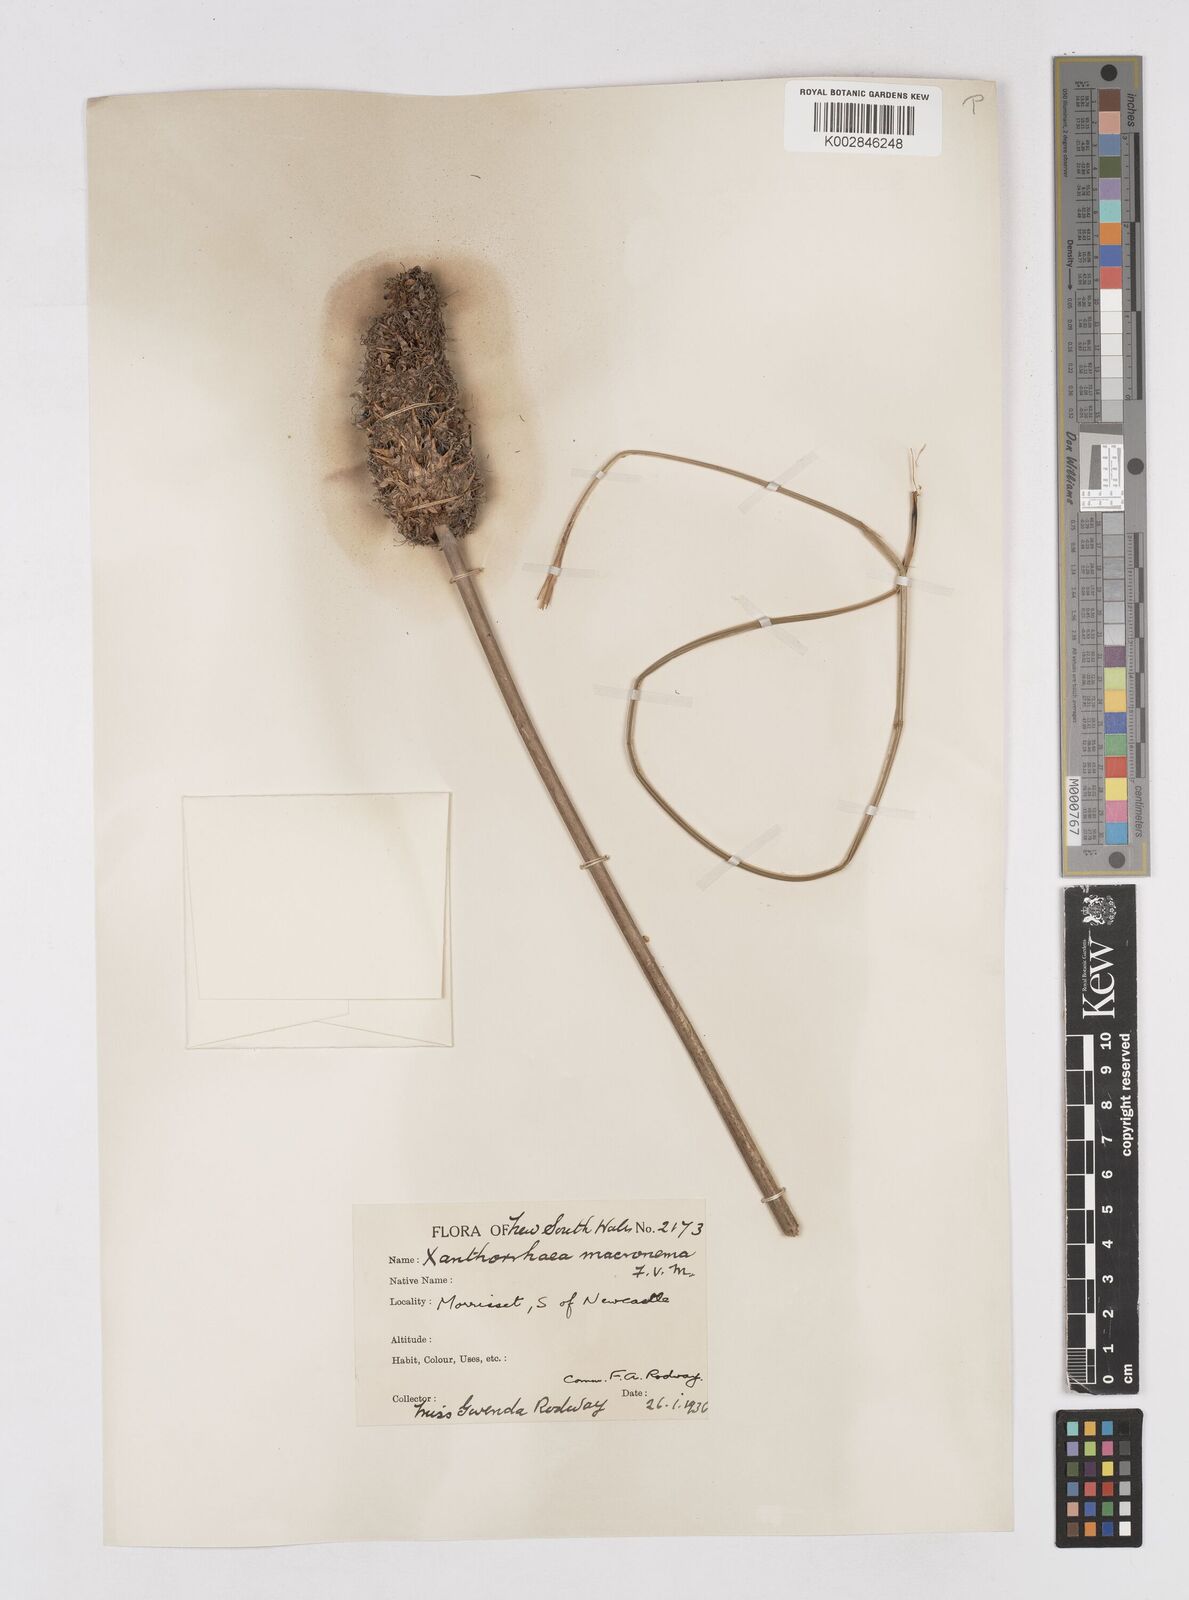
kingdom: Plantae
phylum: Tracheophyta
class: Liliopsida
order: Asparagales
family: Asphodelaceae
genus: Xanthorrhoea
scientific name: Xanthorrhoea macronema
